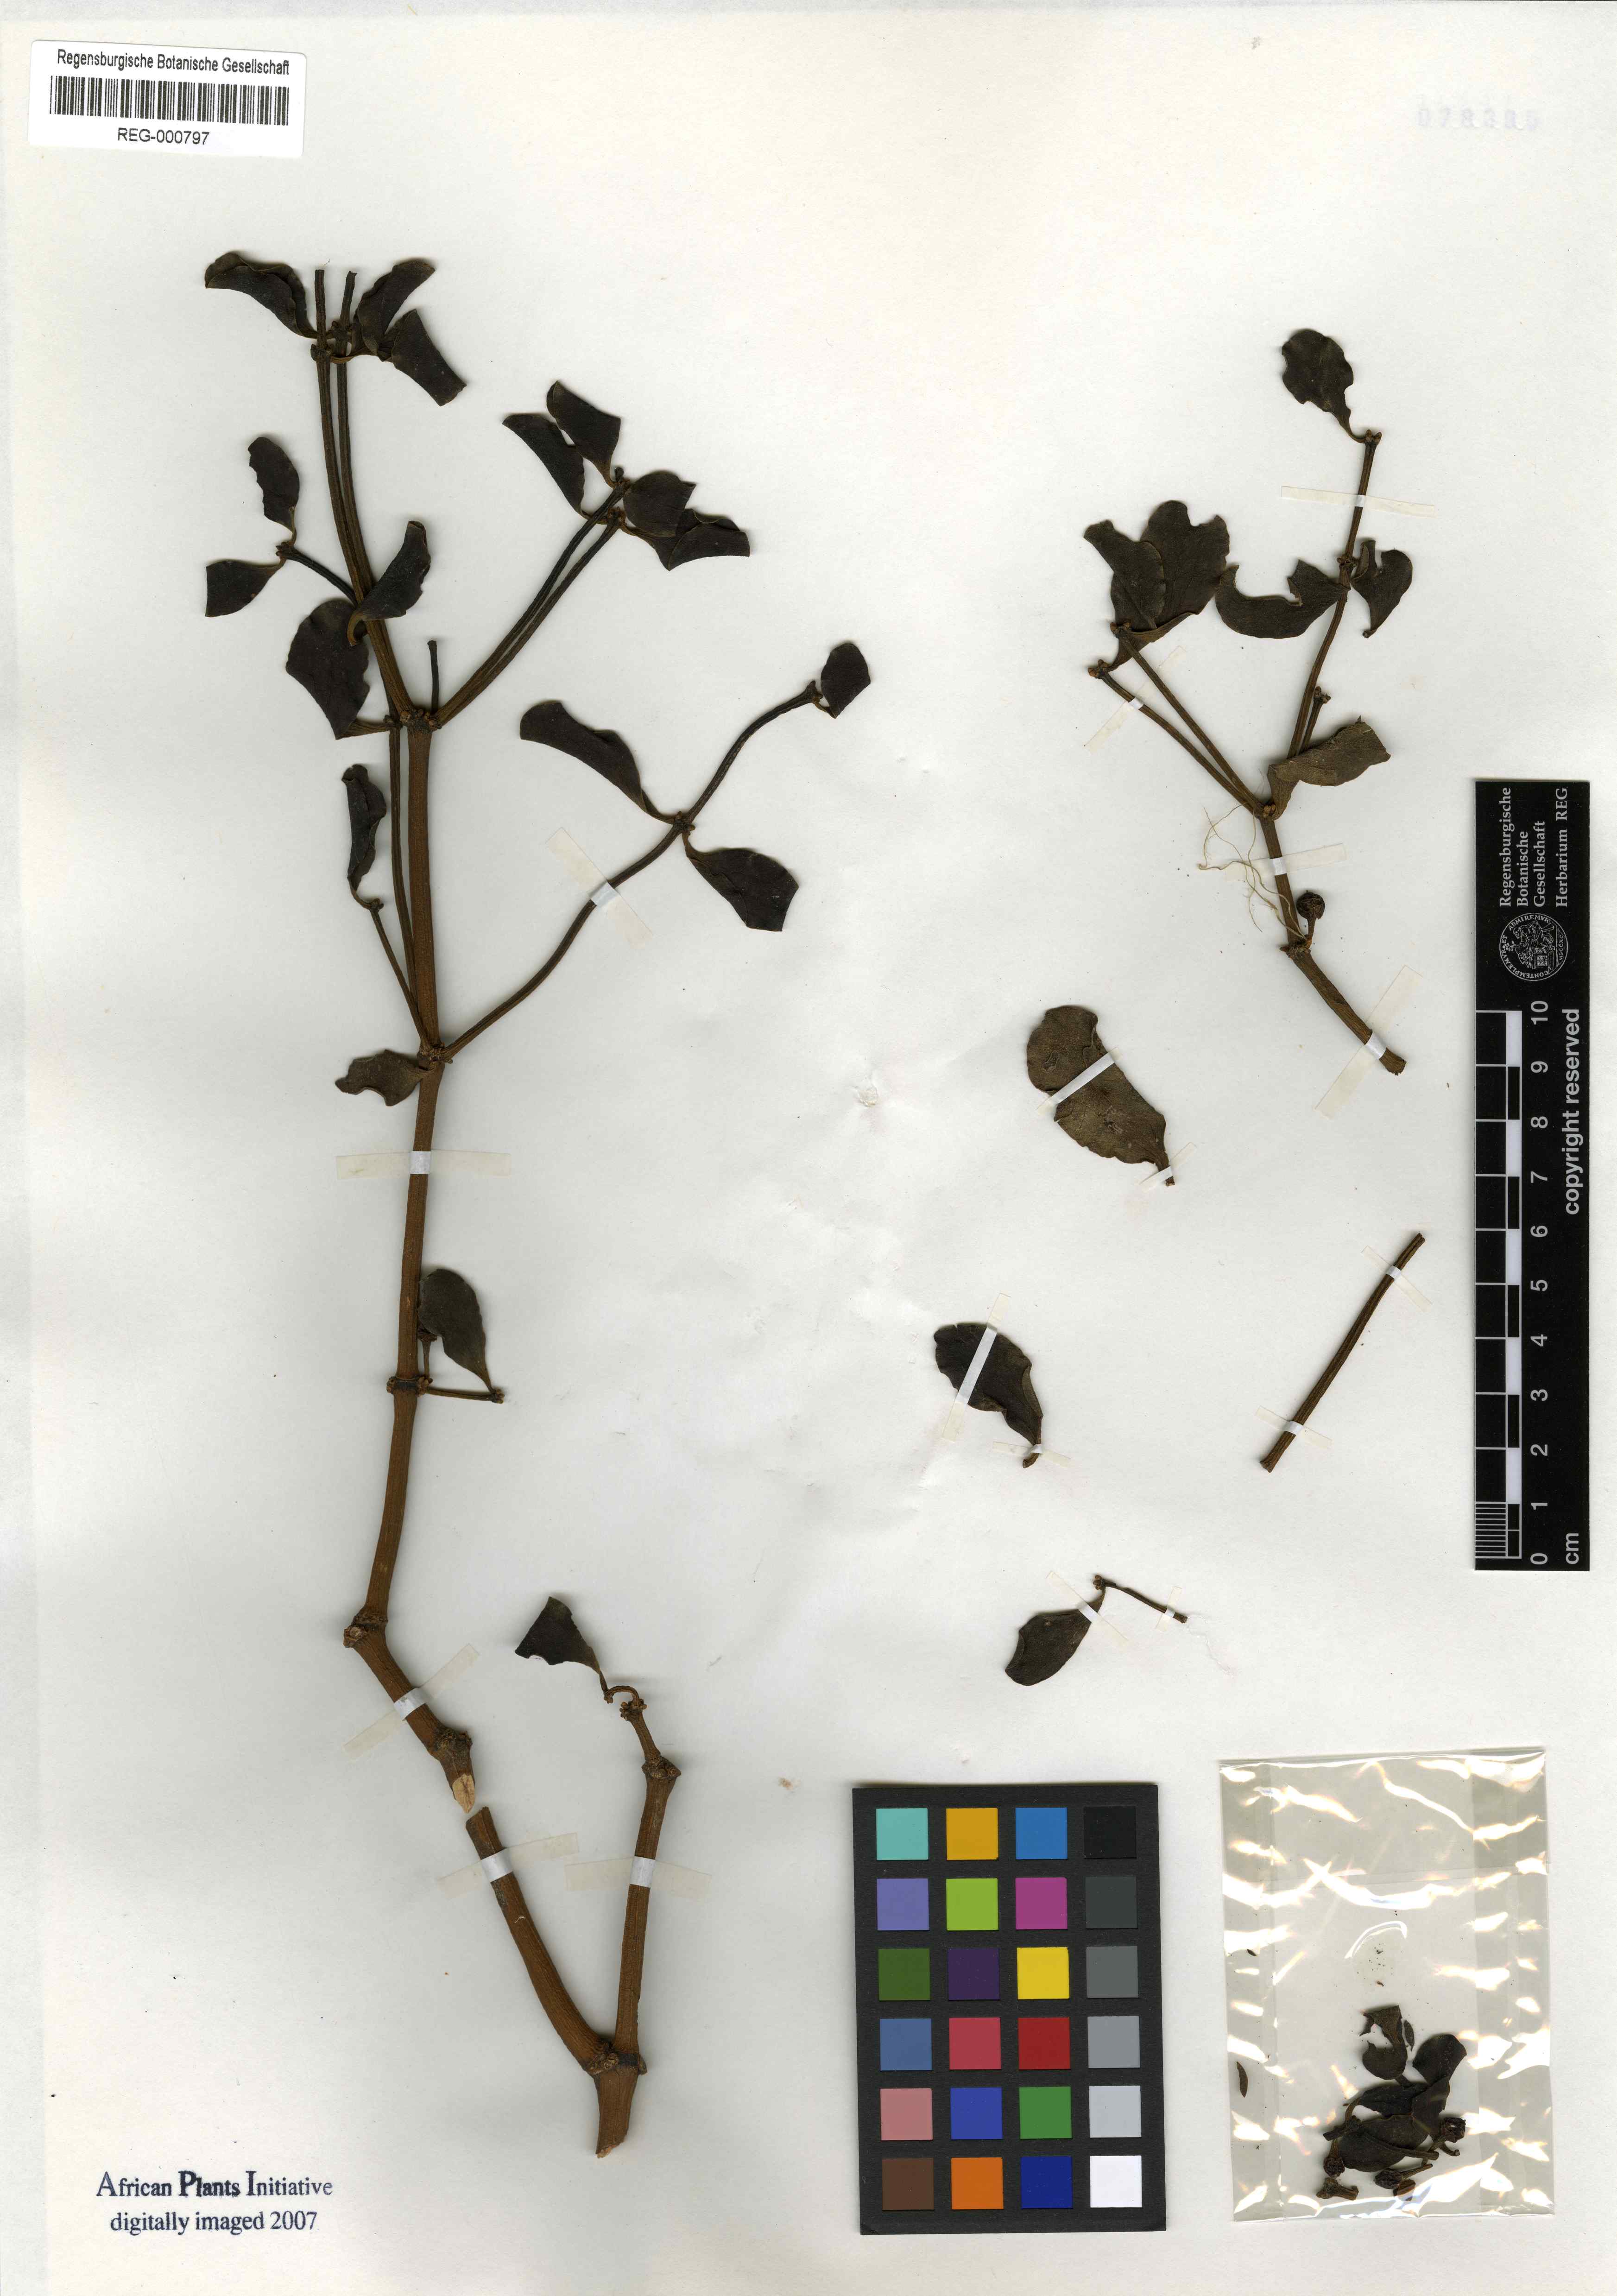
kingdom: Plantae
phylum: Tracheophyta
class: Magnoliopsida
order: Santalales
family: Viscaceae
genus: Viscum
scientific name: Viscum rotundifolium
